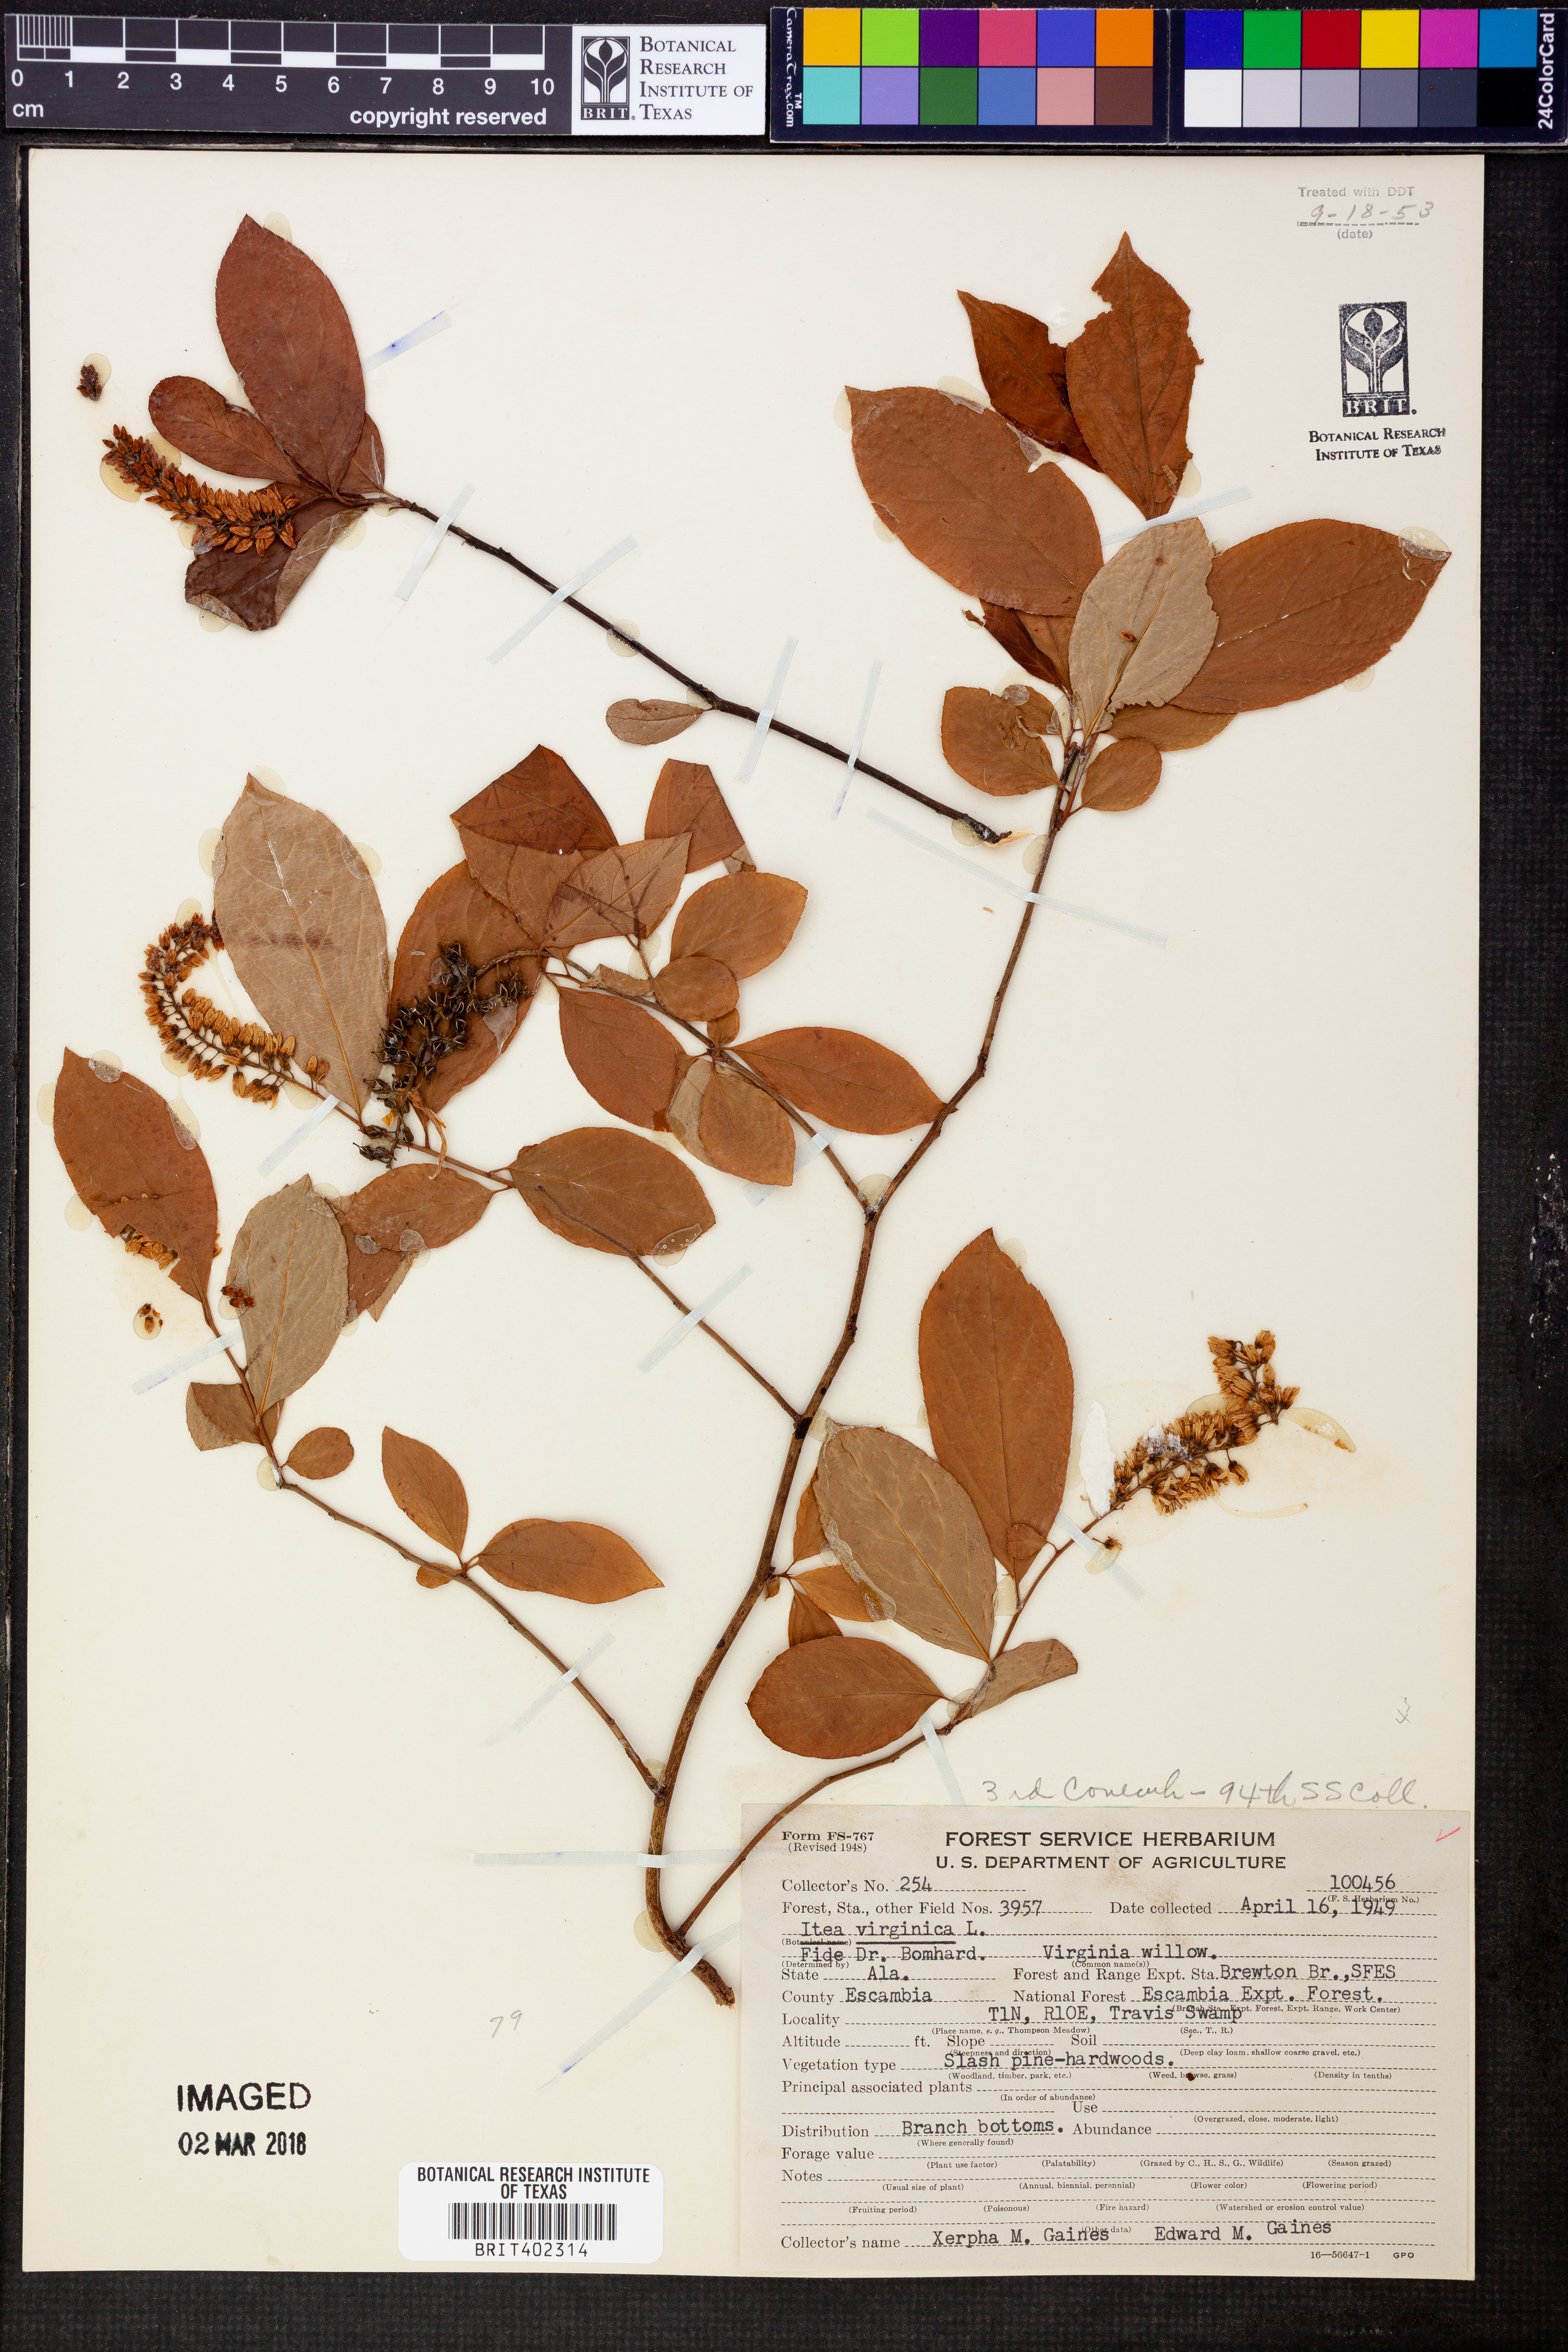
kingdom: Plantae
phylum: Tracheophyta
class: Magnoliopsida
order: Saxifragales
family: Iteaceae
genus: Itea
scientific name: Itea virginica
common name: Sweetspire
